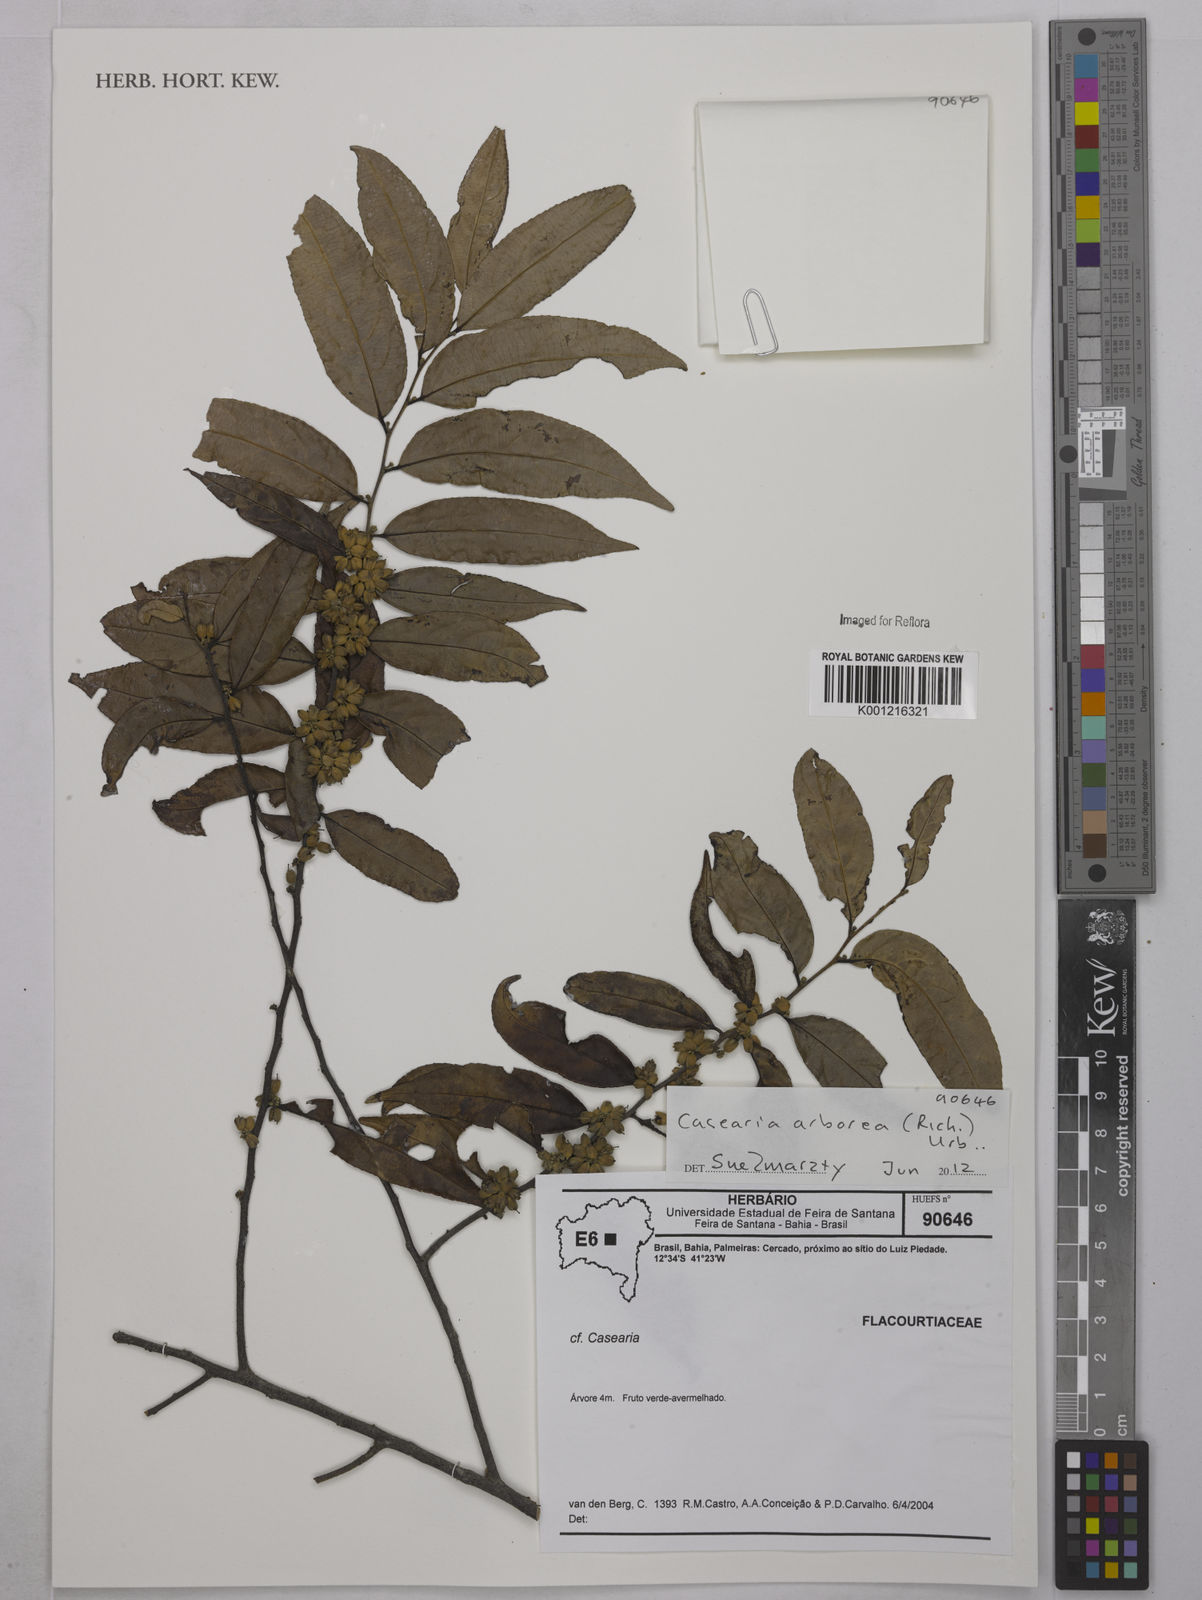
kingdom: Plantae
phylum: Tracheophyta
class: Magnoliopsida
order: Malpighiales
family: Salicaceae
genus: Casearia
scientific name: Casearia arborea
